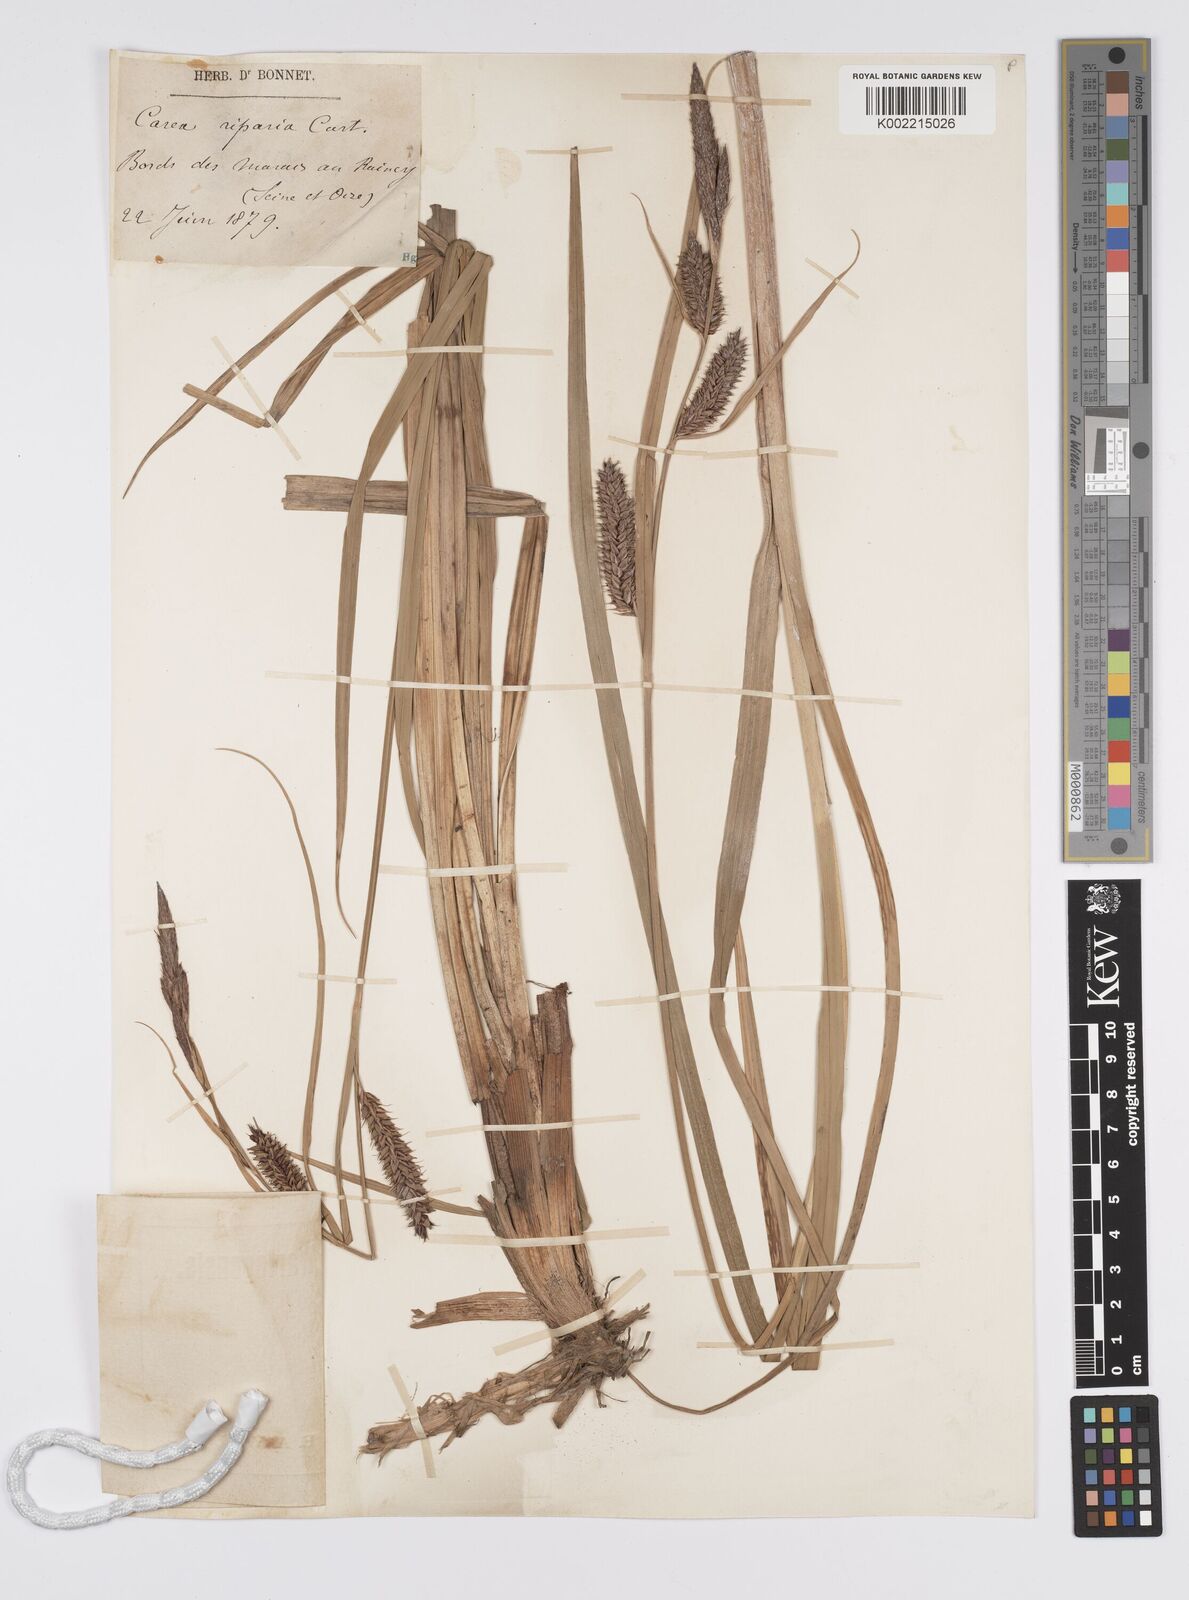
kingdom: Plantae
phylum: Tracheophyta
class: Liliopsida
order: Poales
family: Cyperaceae
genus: Carex
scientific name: Carex riparia
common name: Greater pond-sedge
